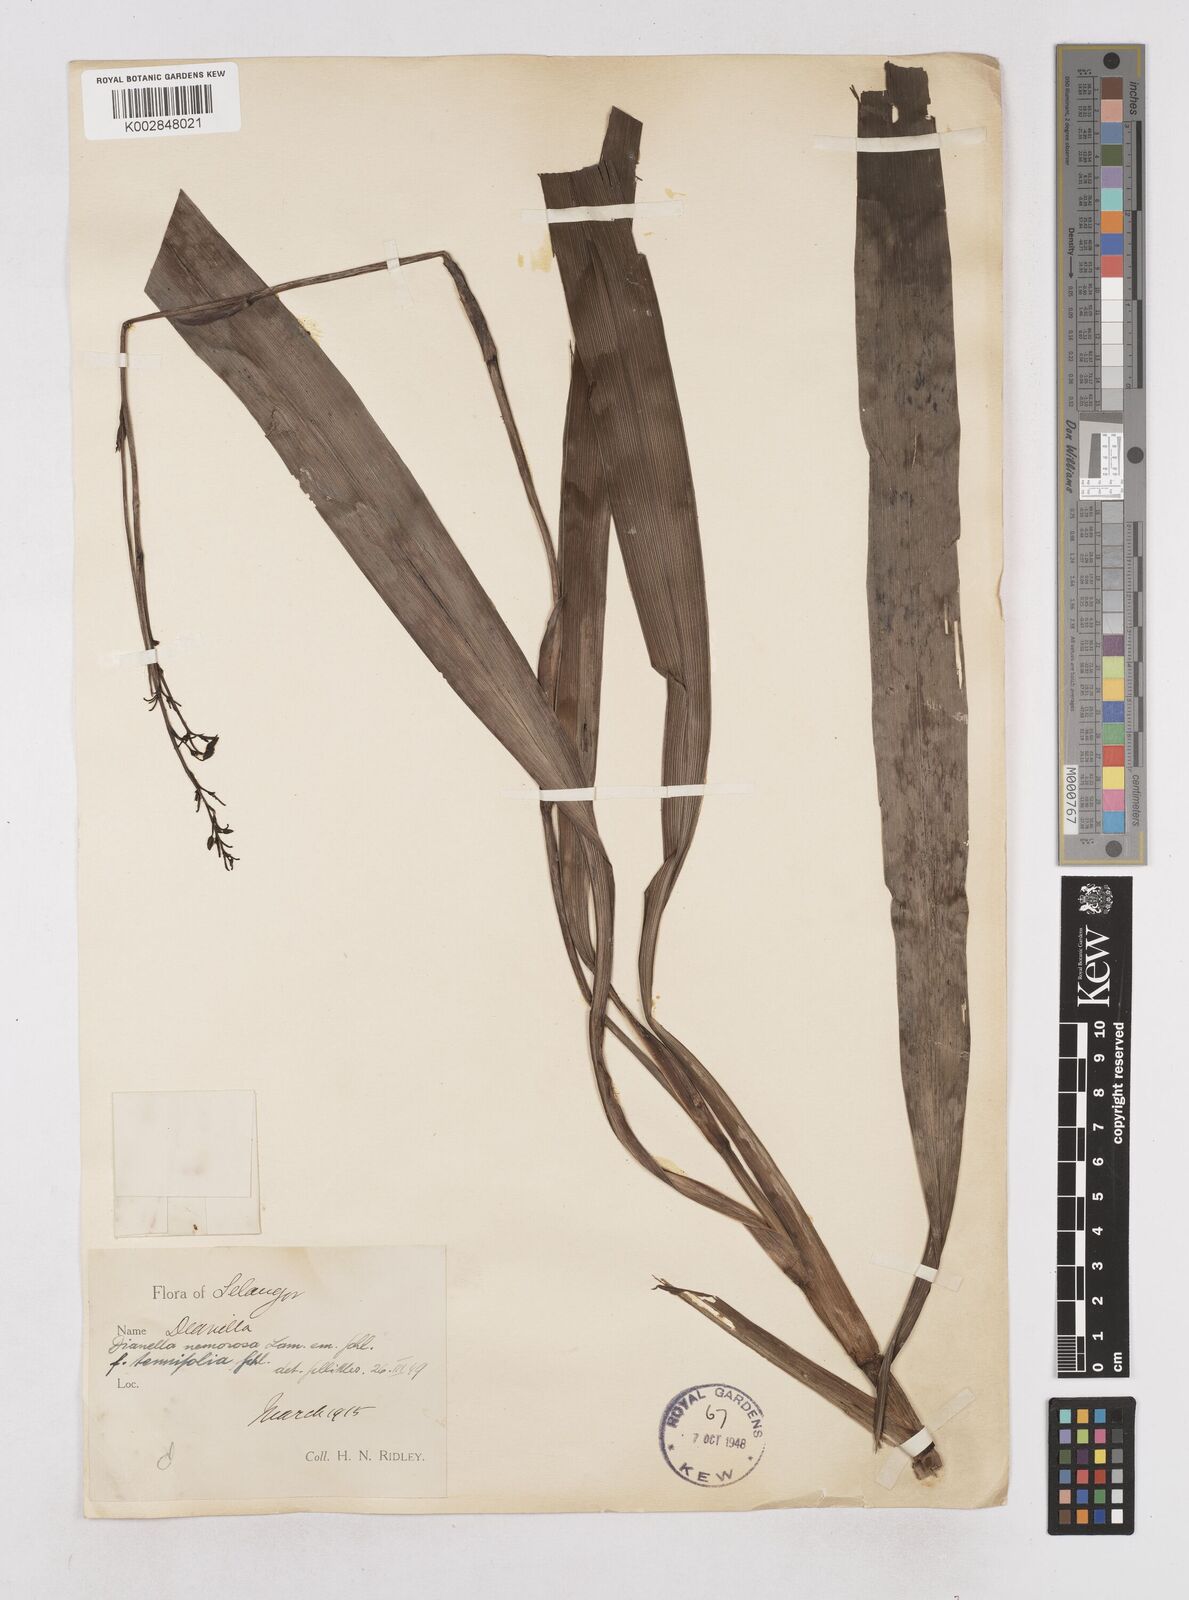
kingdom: Plantae
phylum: Tracheophyta
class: Liliopsida
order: Asparagales
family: Asphodelaceae
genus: Dianella
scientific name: Dianella ensifolia
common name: New zealand lilyplant
